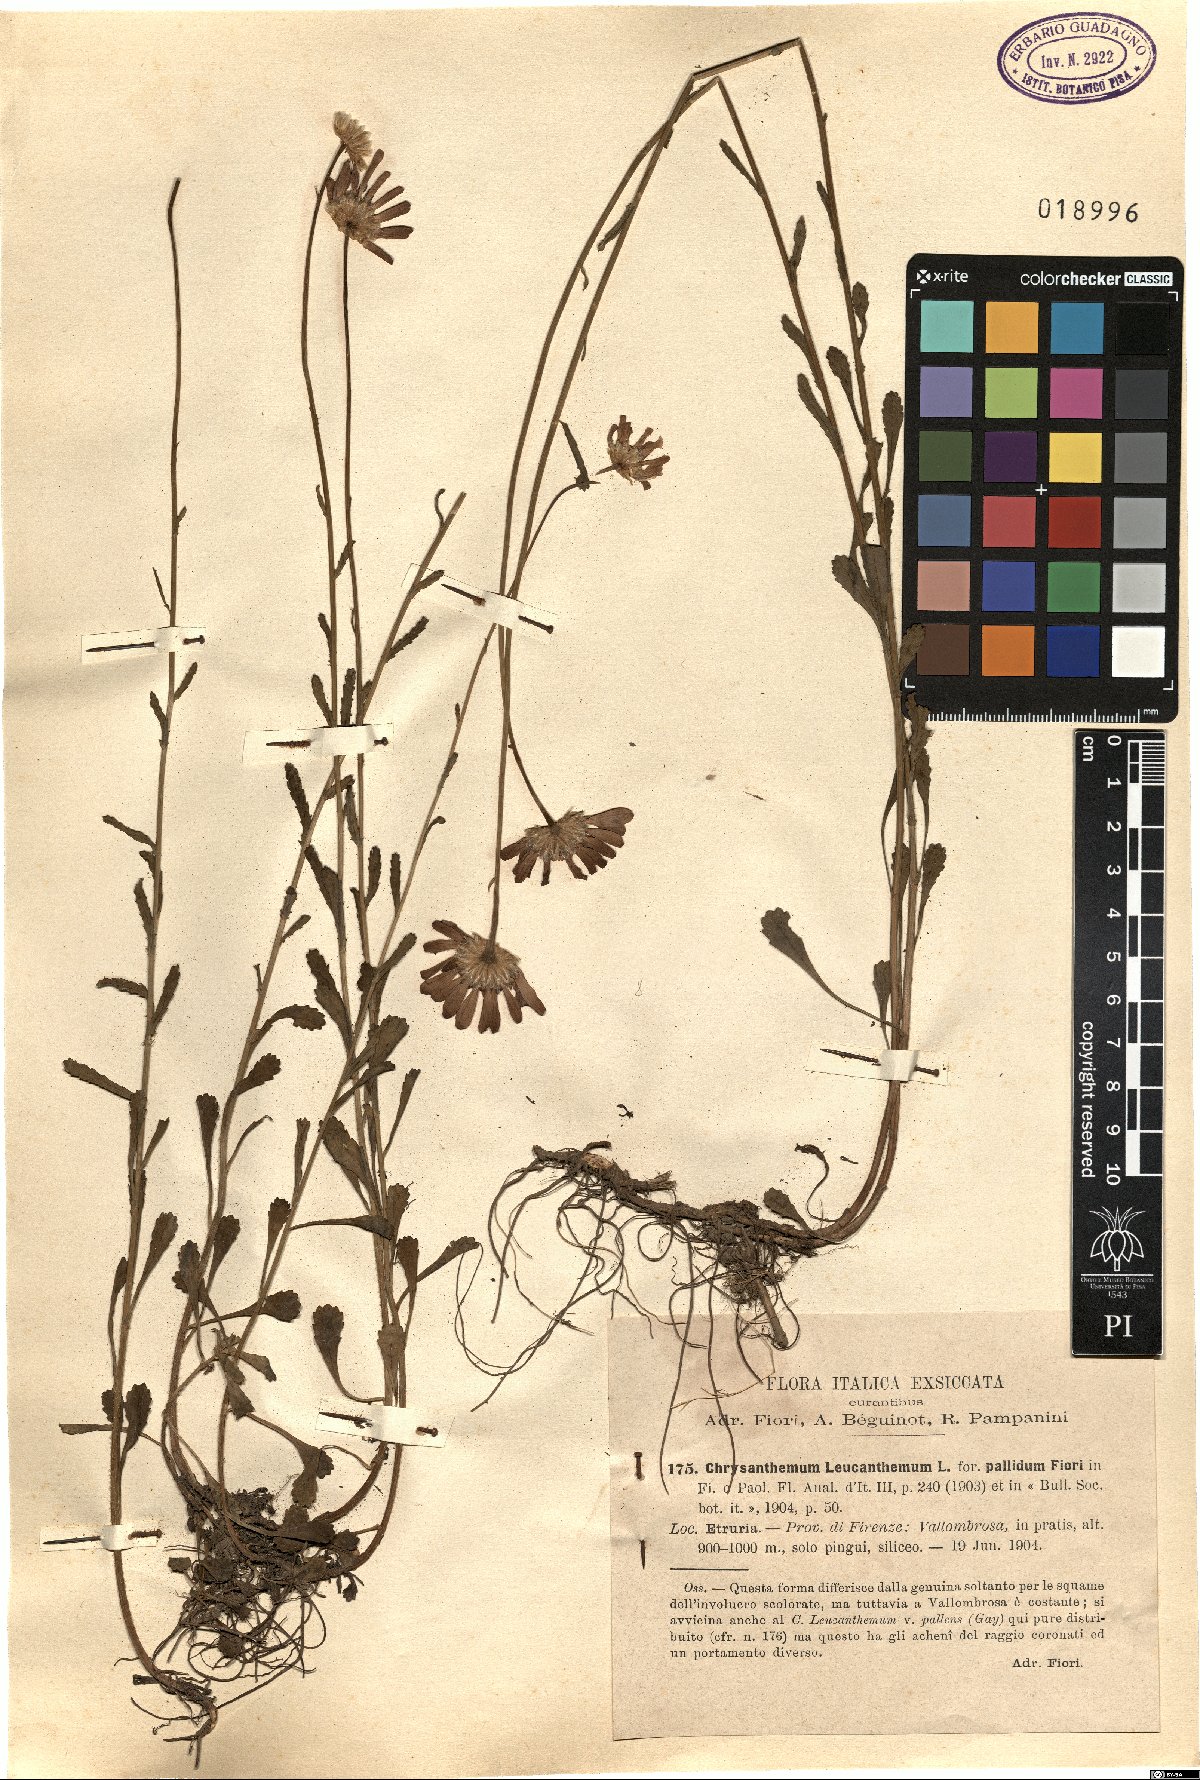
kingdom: Plantae
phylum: Tracheophyta
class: Magnoliopsida
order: Asterales
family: Asteraceae
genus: Leucanthemum
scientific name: Leucanthemum vulgare
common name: Oxeye daisy
